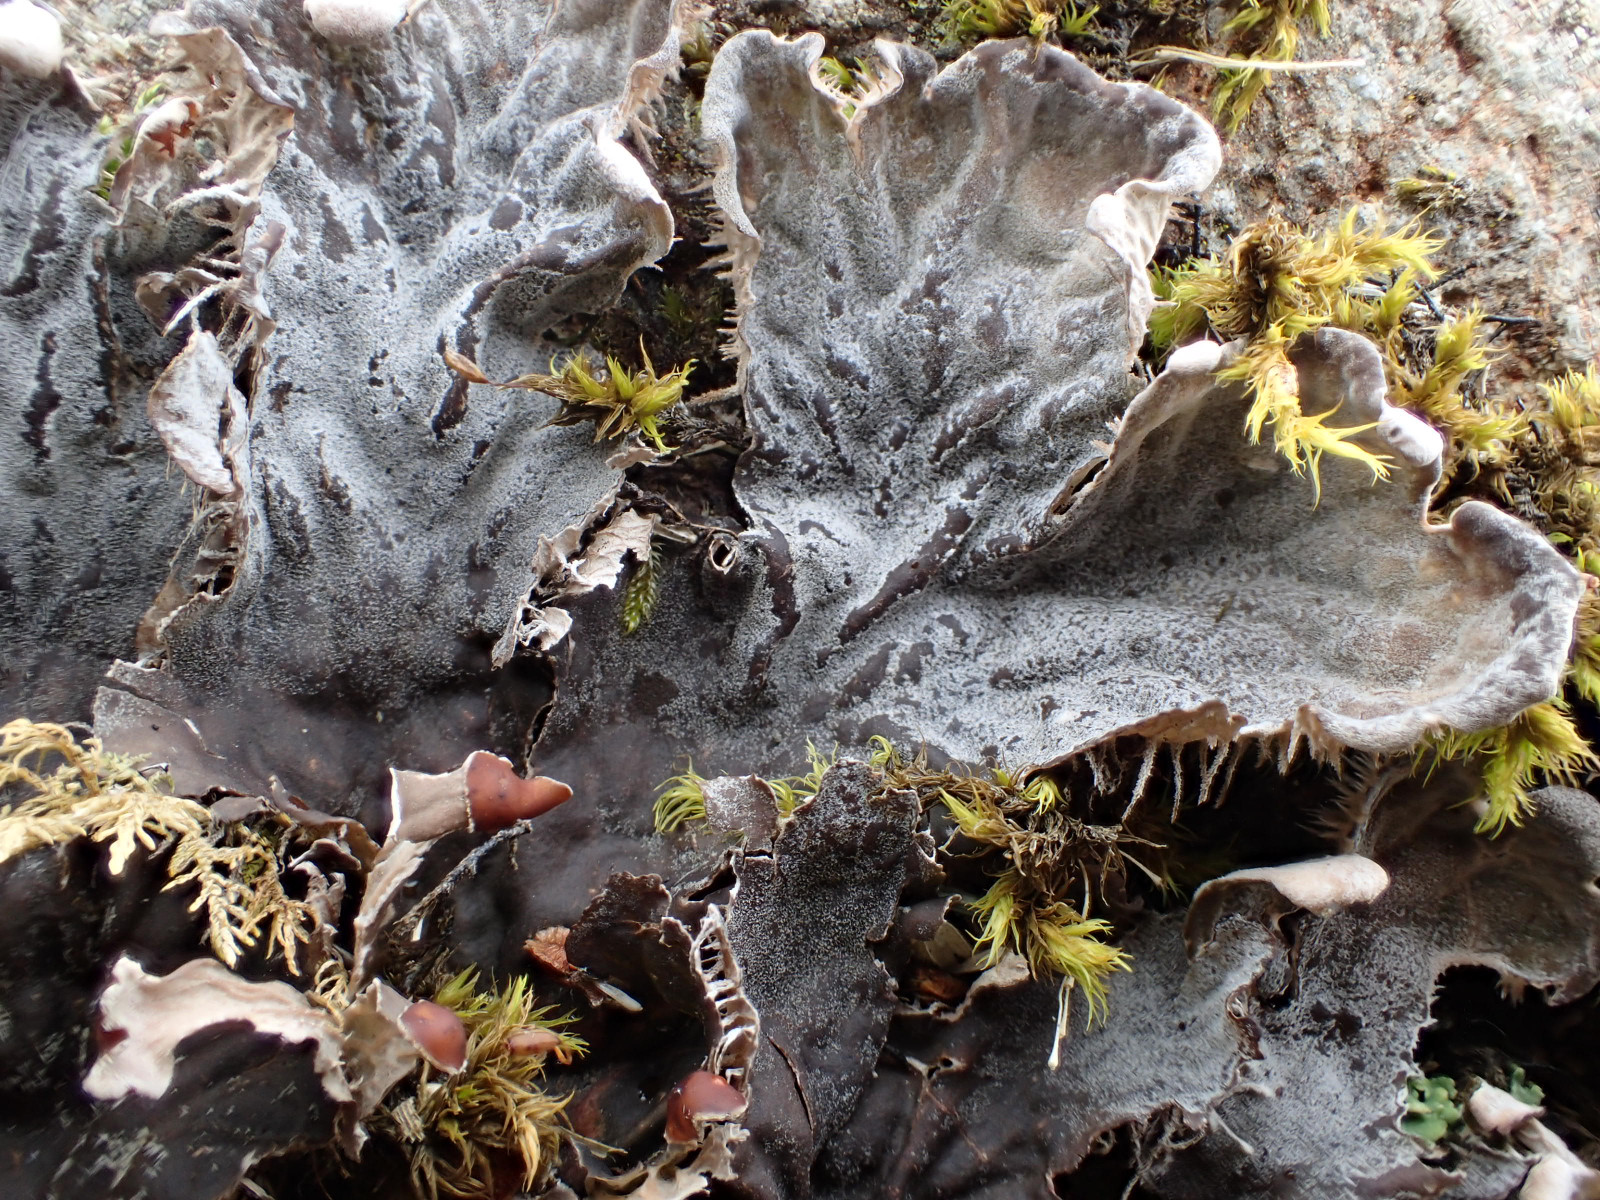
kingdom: Fungi
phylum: Ascomycota
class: Lecanoromycetes
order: Peltigerales
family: Peltigeraceae
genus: Peltigera
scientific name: Peltigera membranacea
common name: tynd skjoldlav
